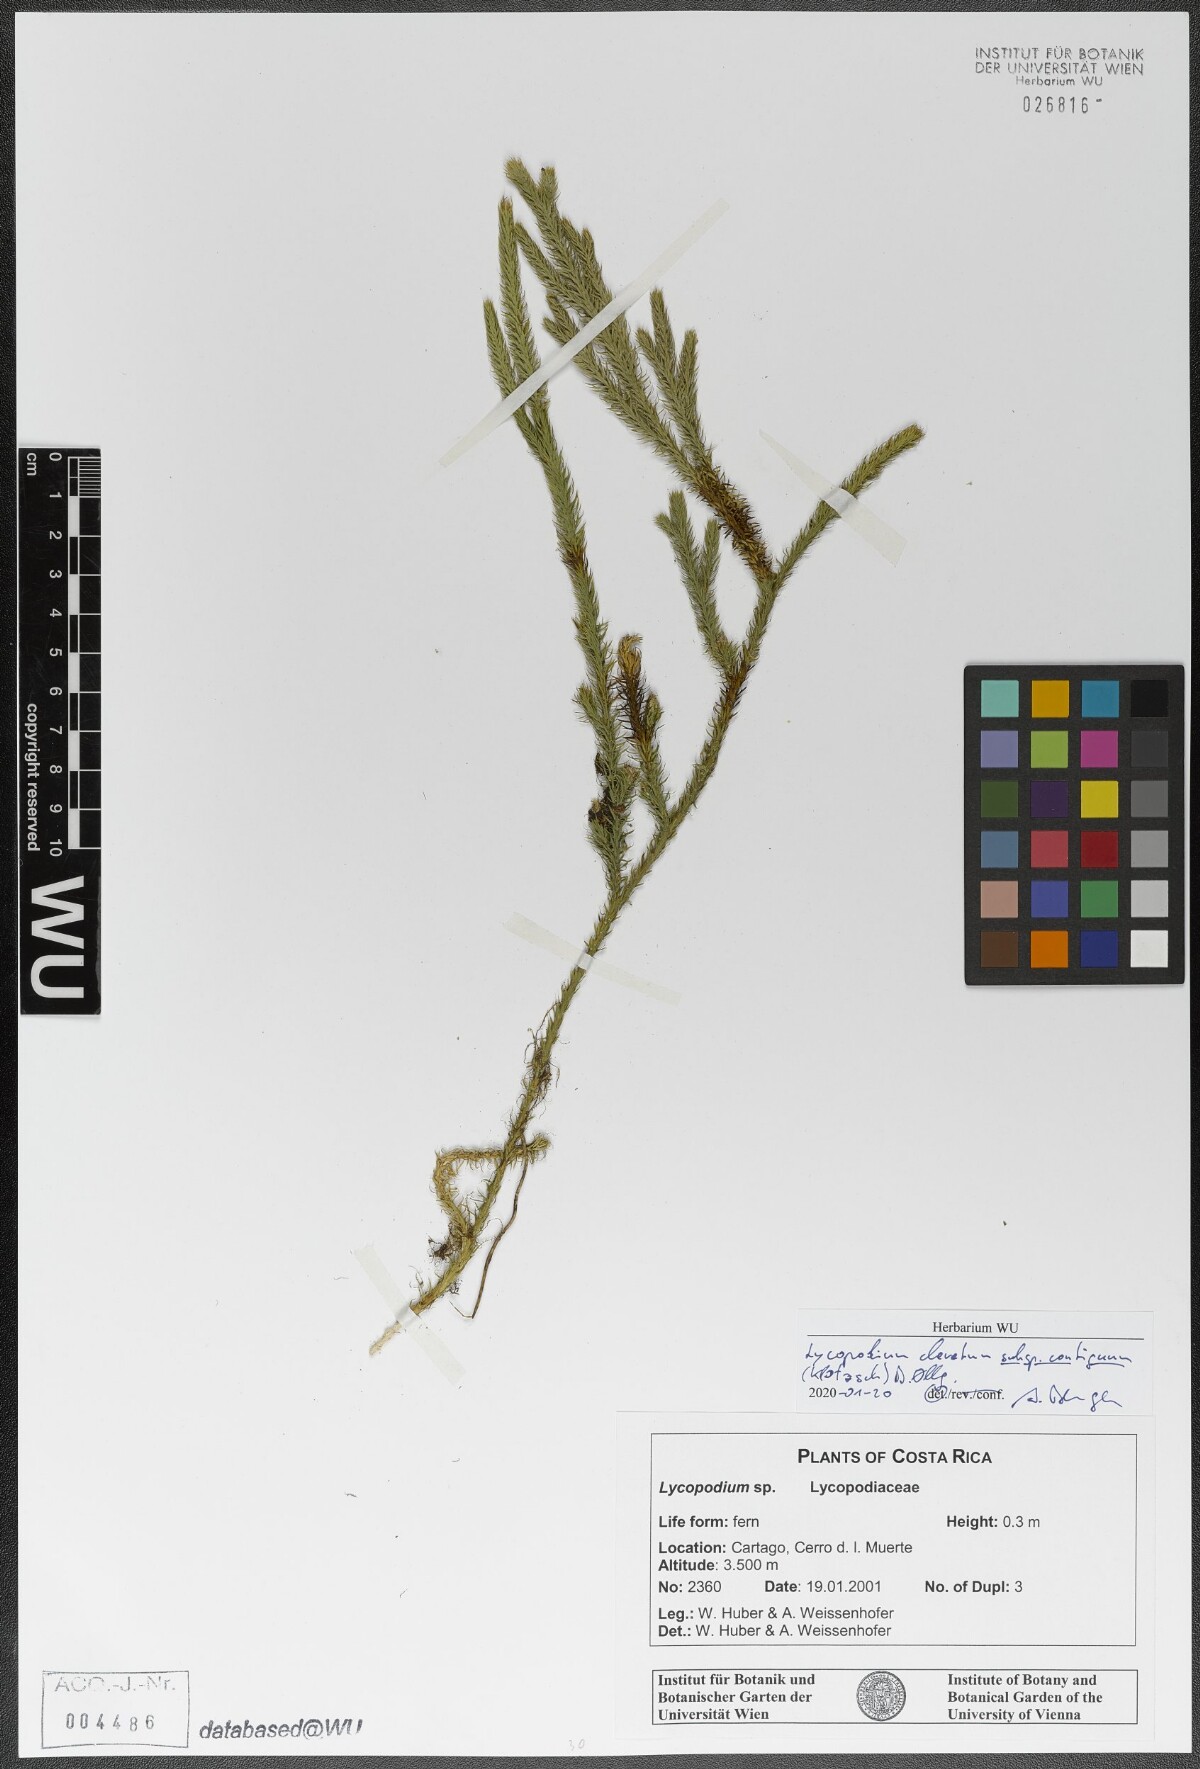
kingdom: Plantae
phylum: Tracheophyta
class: Lycopodiopsida
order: Lycopodiales
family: Lycopodiaceae
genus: Lycopodium
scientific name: Lycopodium clavatum
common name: Stag's-horn clubmoss
